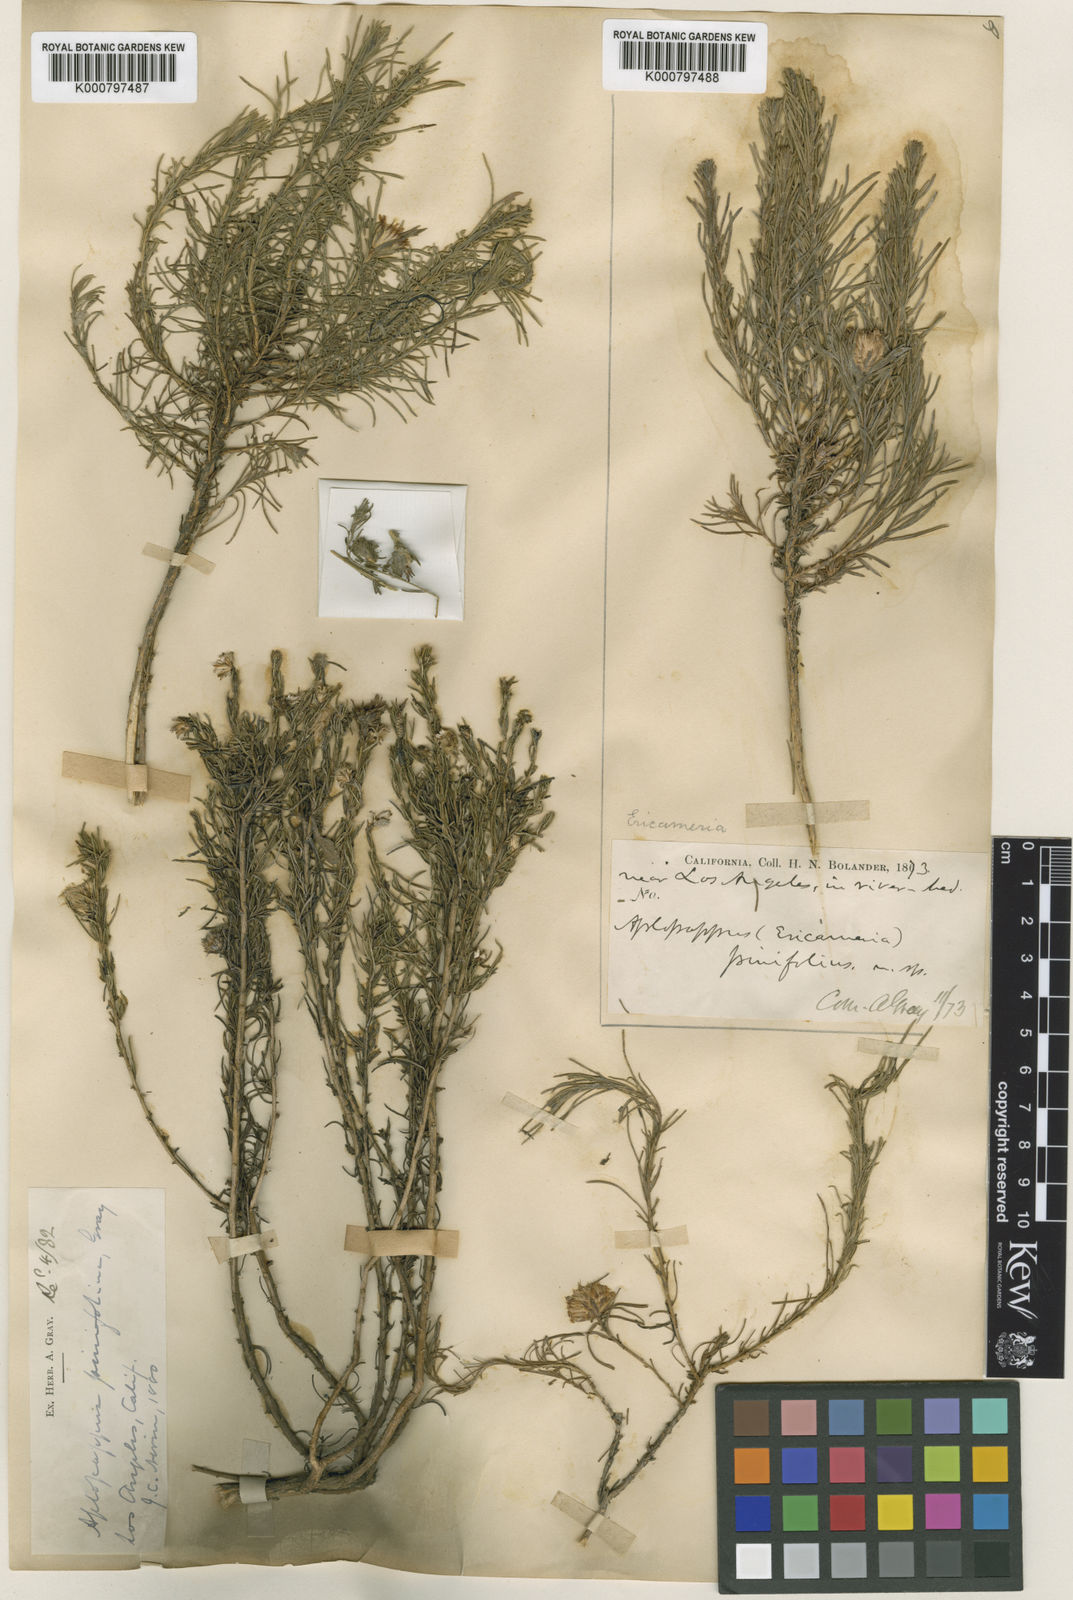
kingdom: Plantae
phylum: Tracheophyta
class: Magnoliopsida
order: Asterales
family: Asteraceae
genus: Ericameria
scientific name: Ericameria pinifolia
